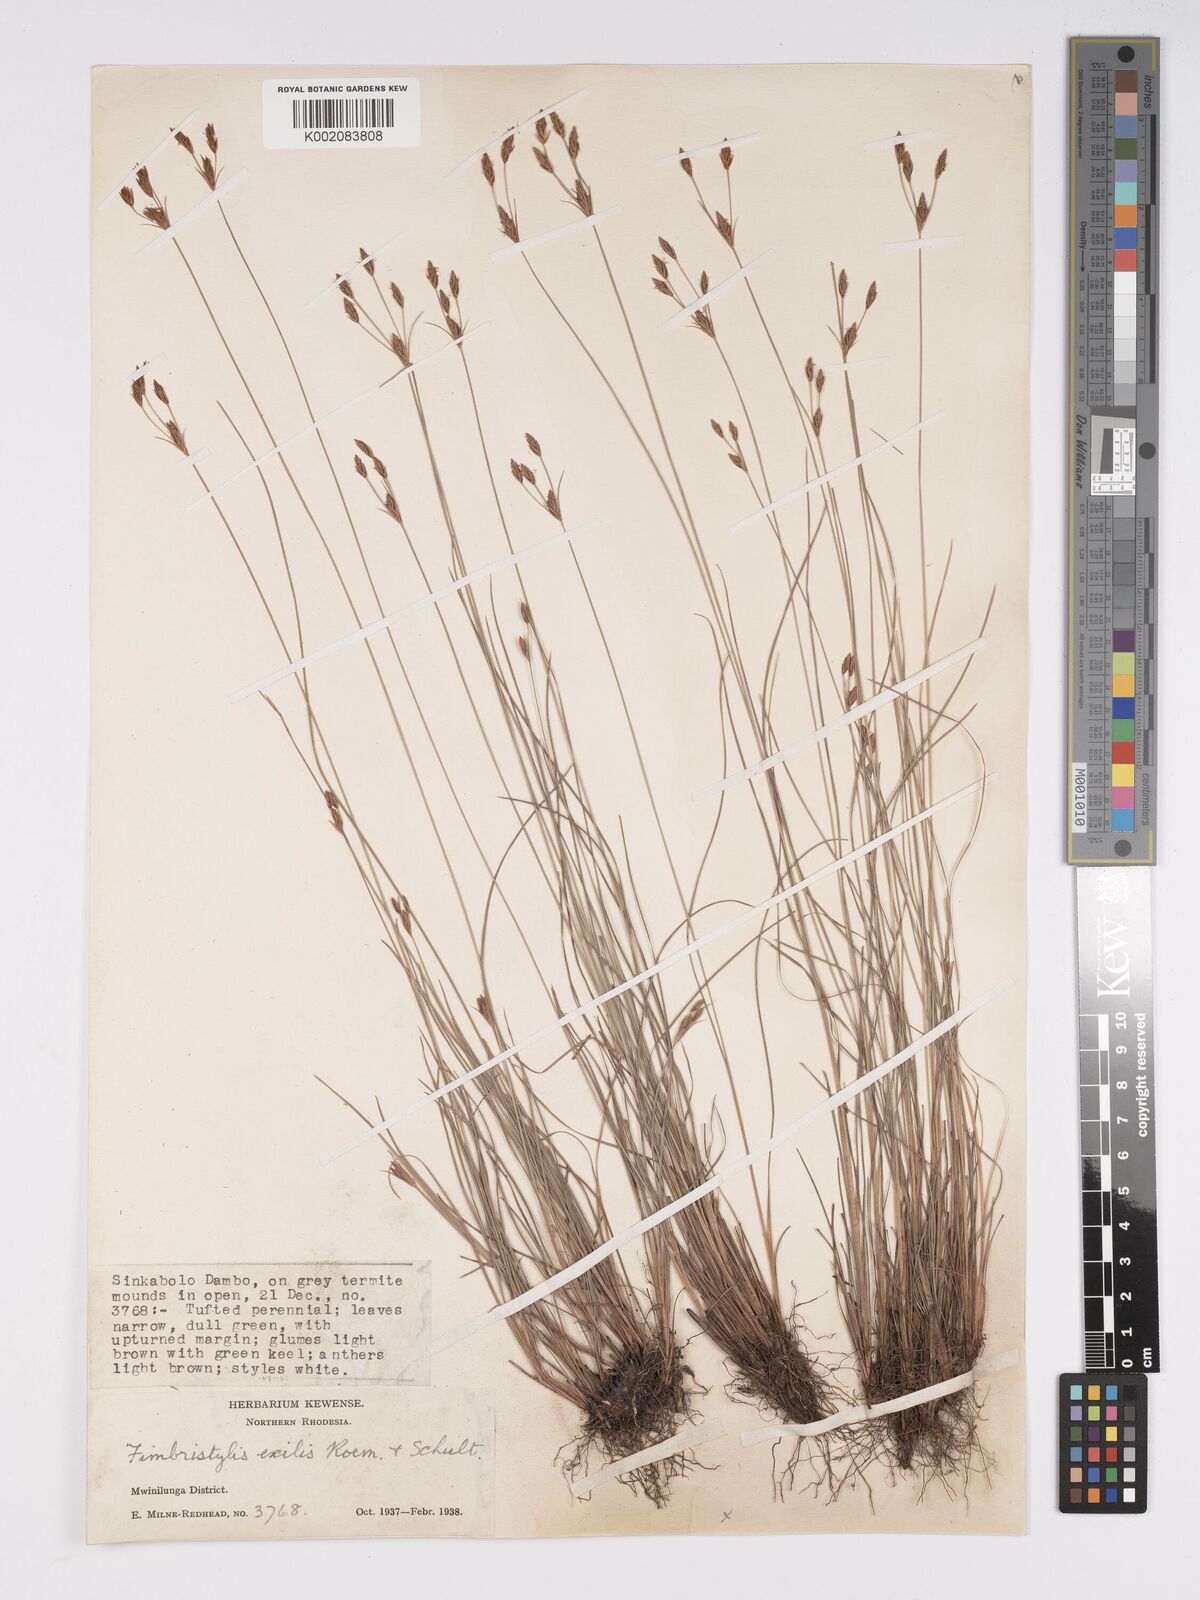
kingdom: Plantae
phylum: Tracheophyta
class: Liliopsida
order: Poales
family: Cyperaceae
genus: Bulbostylis
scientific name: Bulbostylis hispidula
